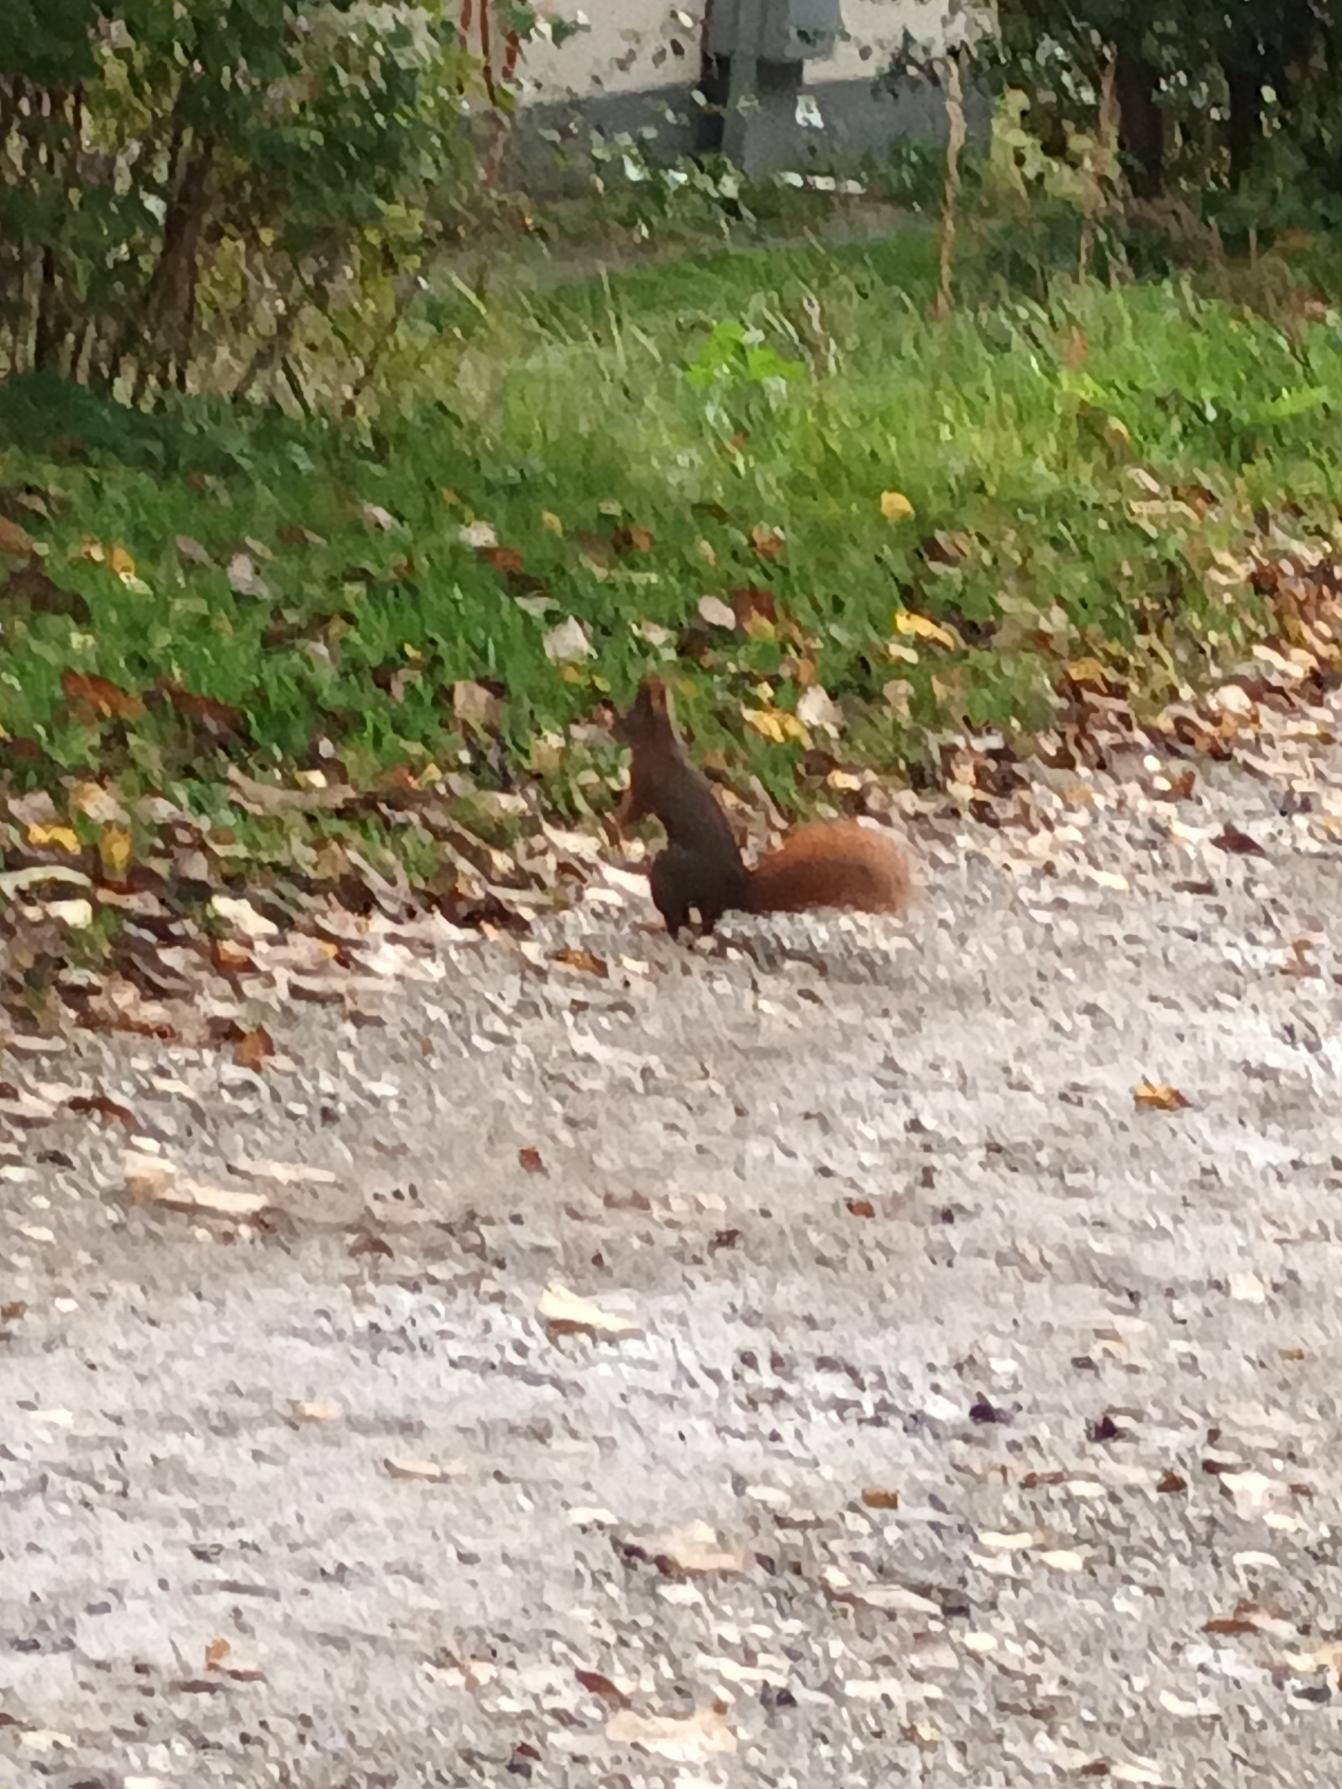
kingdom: Animalia
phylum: Chordata
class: Mammalia
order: Rodentia
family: Sciuridae
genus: Sciurus
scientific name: Sciurus vulgaris
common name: Egern
